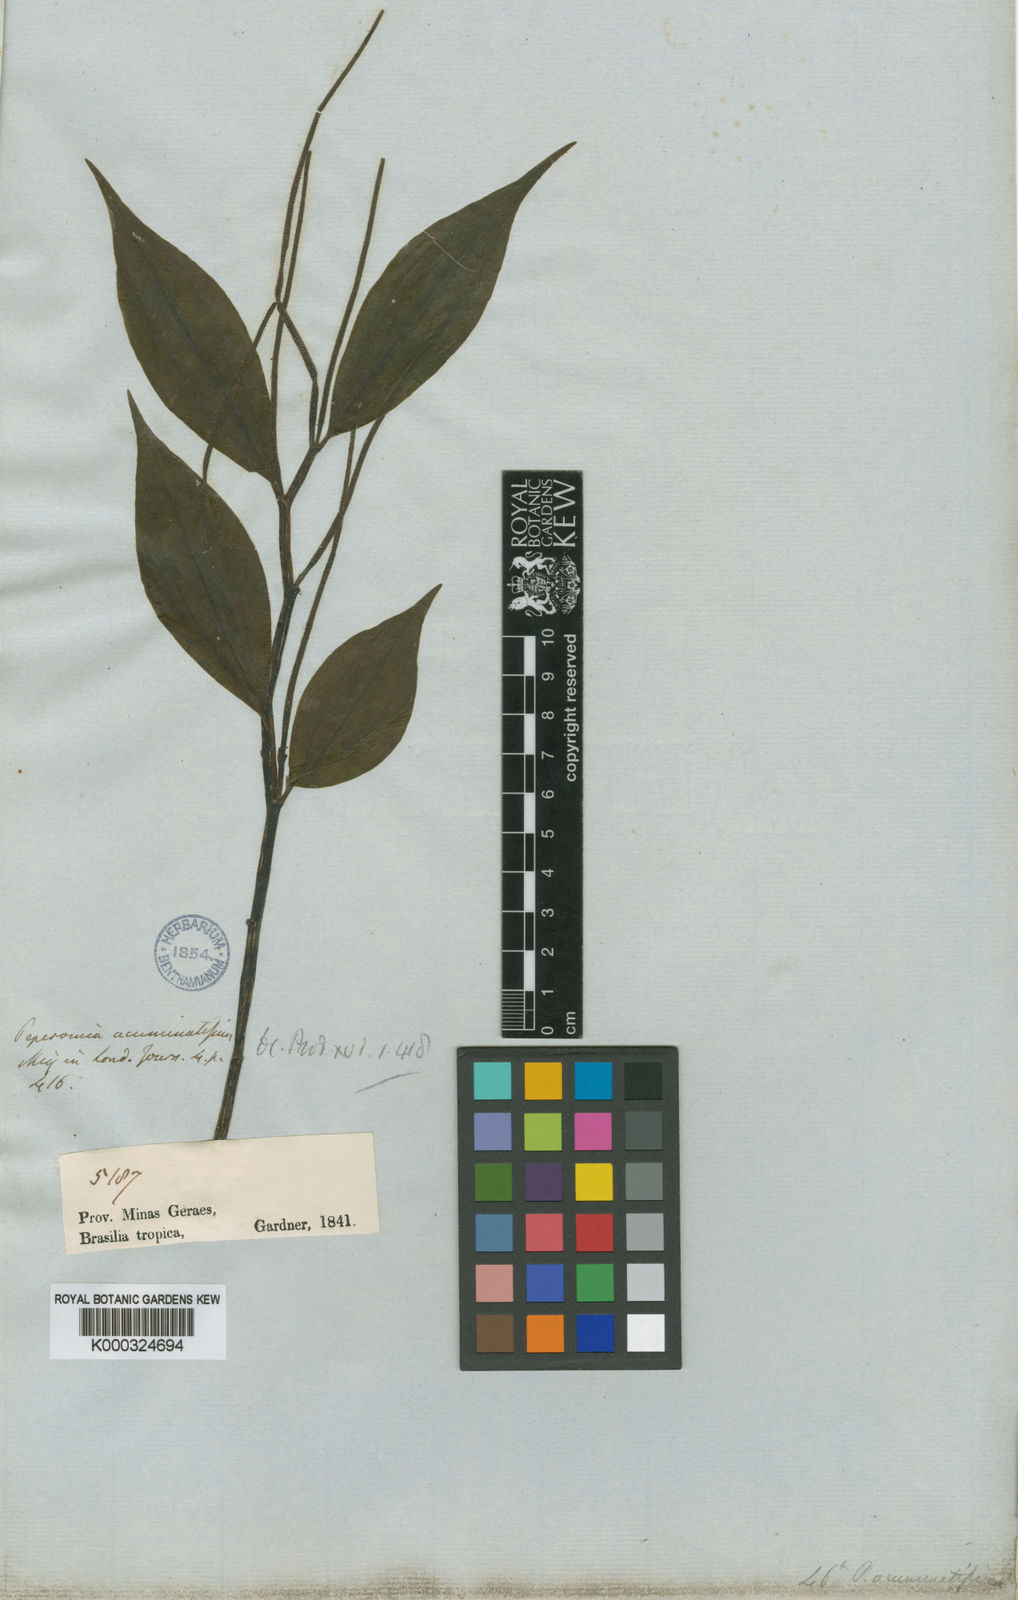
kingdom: Plantae
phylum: Tracheophyta
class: Magnoliopsida
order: Piperales
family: Piperaceae
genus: Peperomia
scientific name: Peperomia acuminatissima
